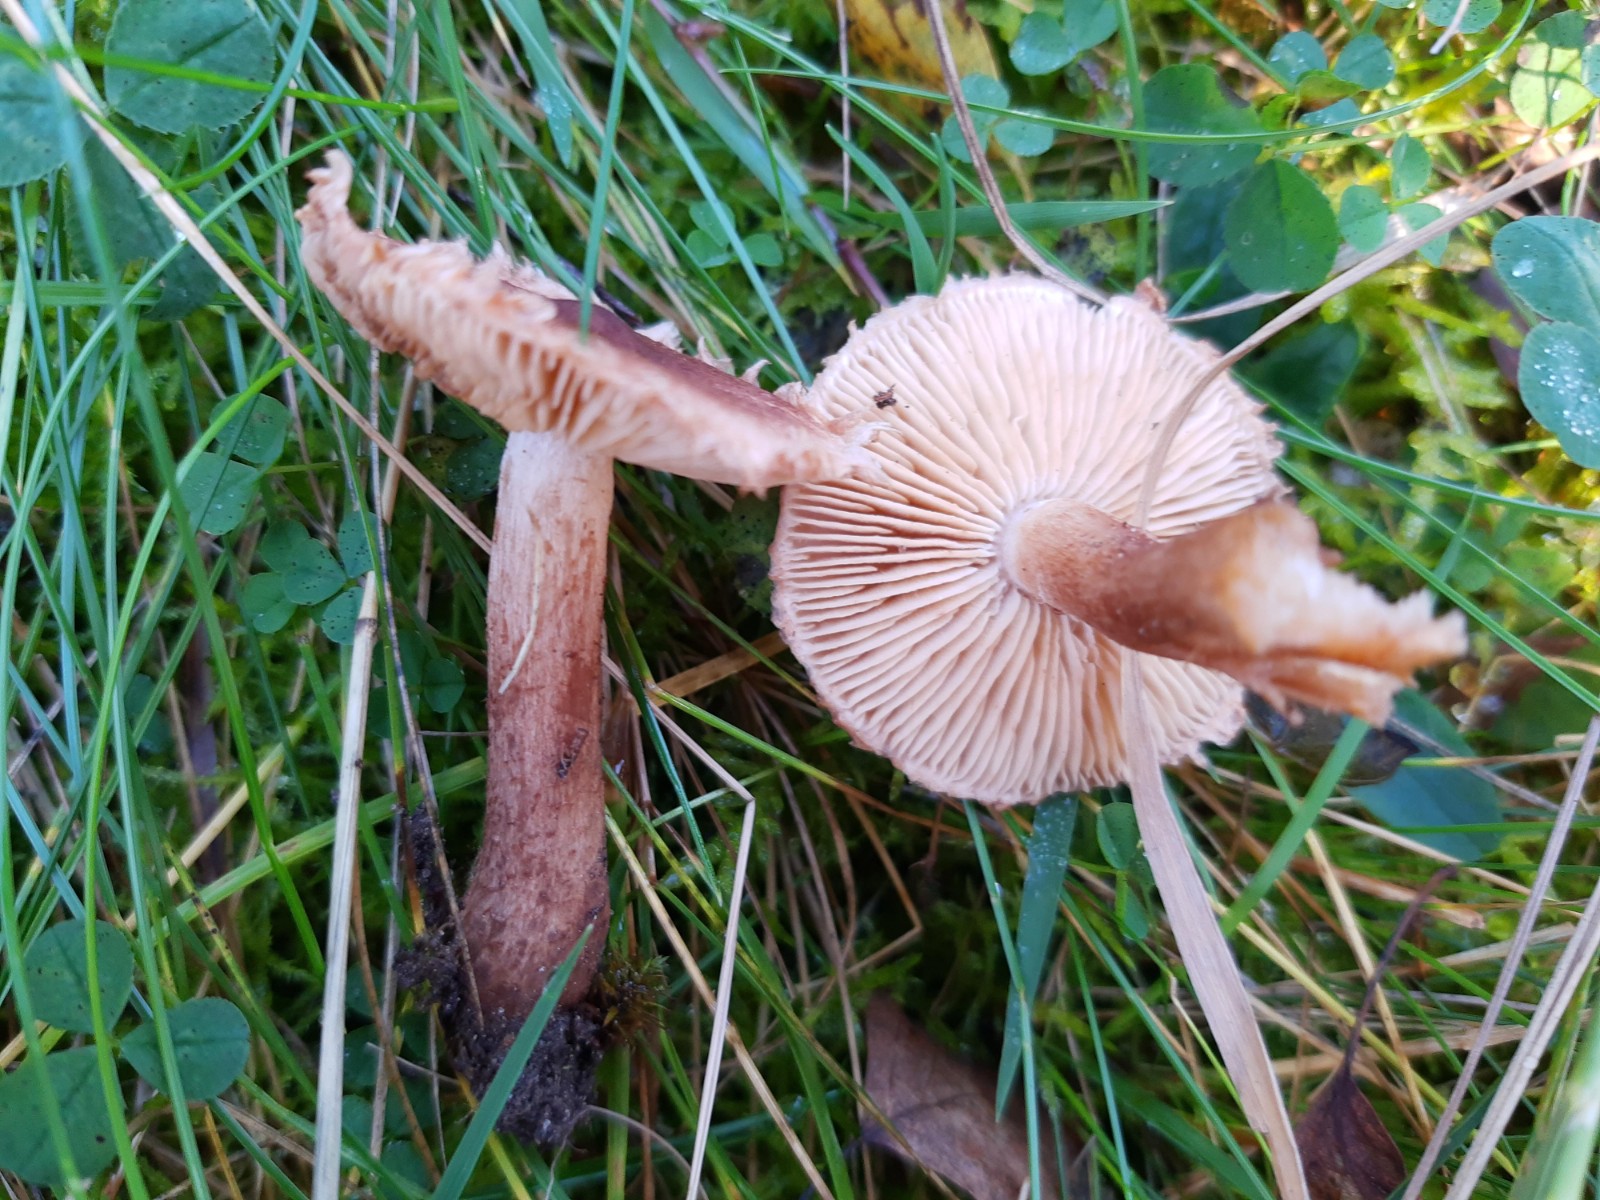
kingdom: Fungi
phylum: Basidiomycota
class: Agaricomycetes
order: Agaricales
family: Tricholomataceae
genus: Tricholoma
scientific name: Tricholoma vaccinum
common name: ko-ridderhat
